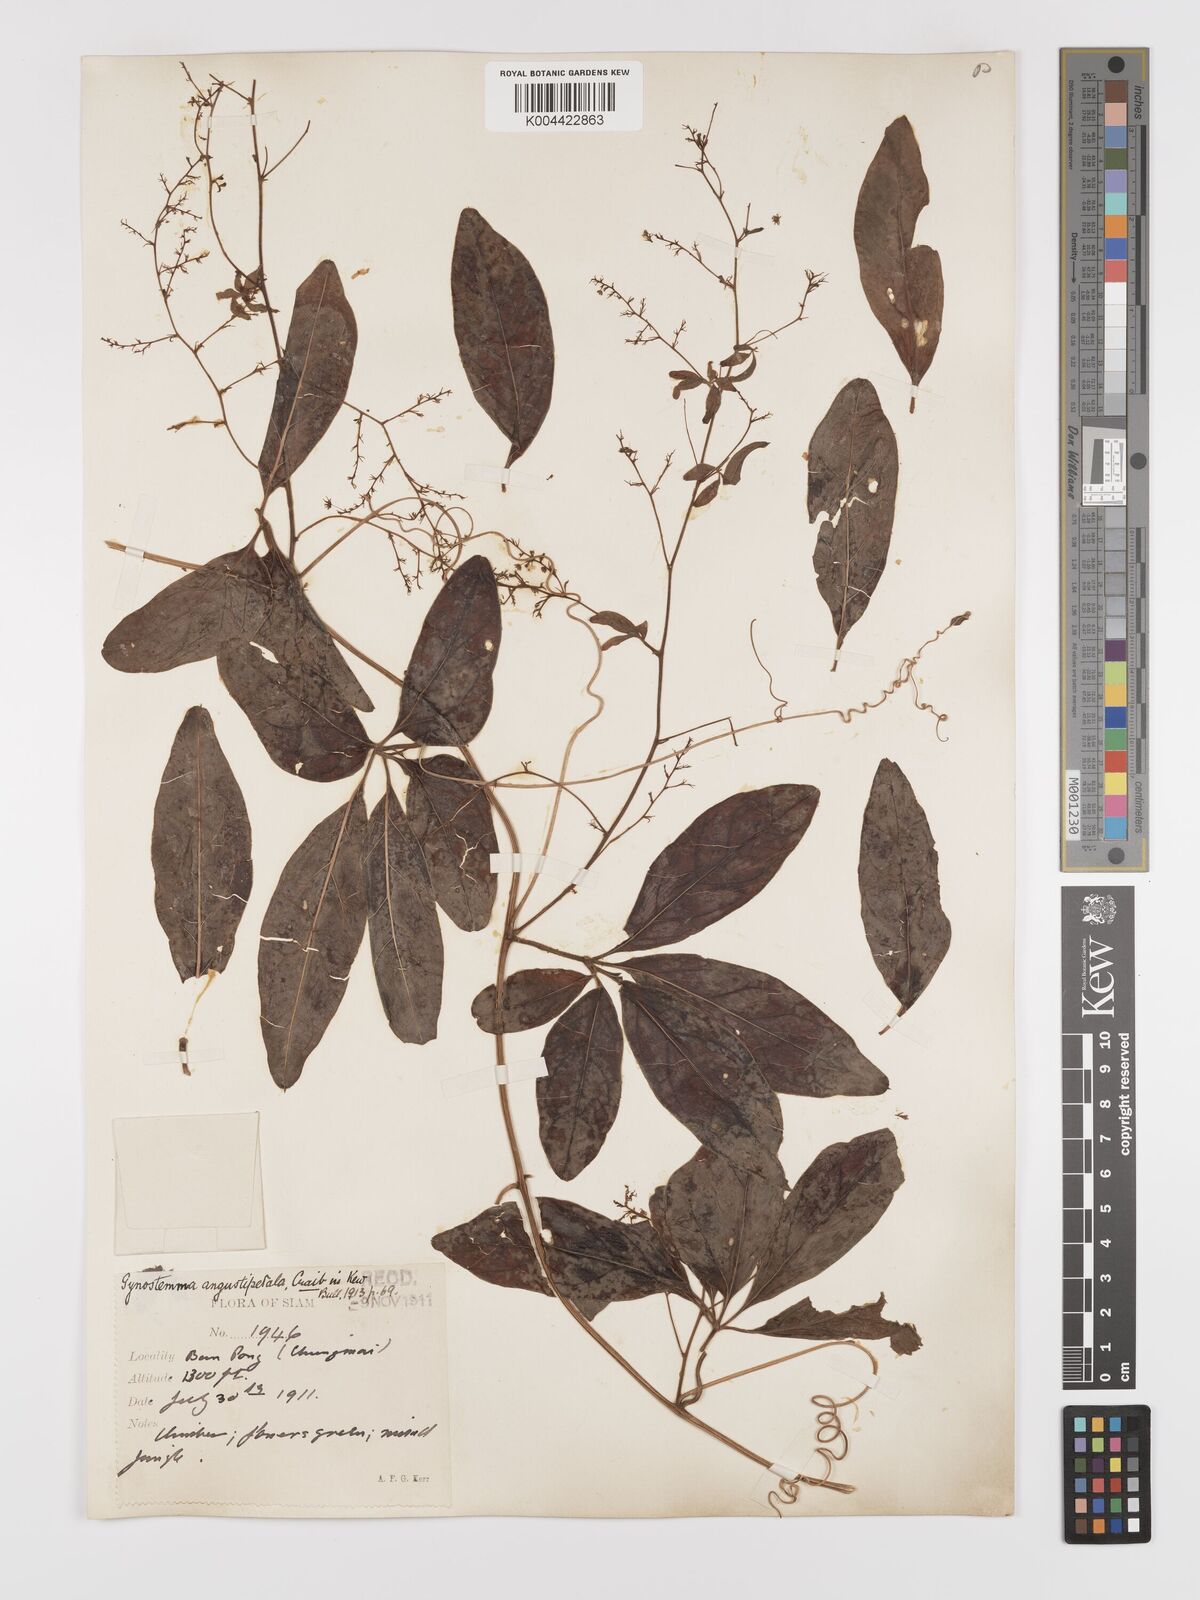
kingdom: Plantae
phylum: Tracheophyta
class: Magnoliopsida
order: Cucurbitales
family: Cucurbitaceae
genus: Neoalsomitra
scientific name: Neoalsomitra angustipetala
